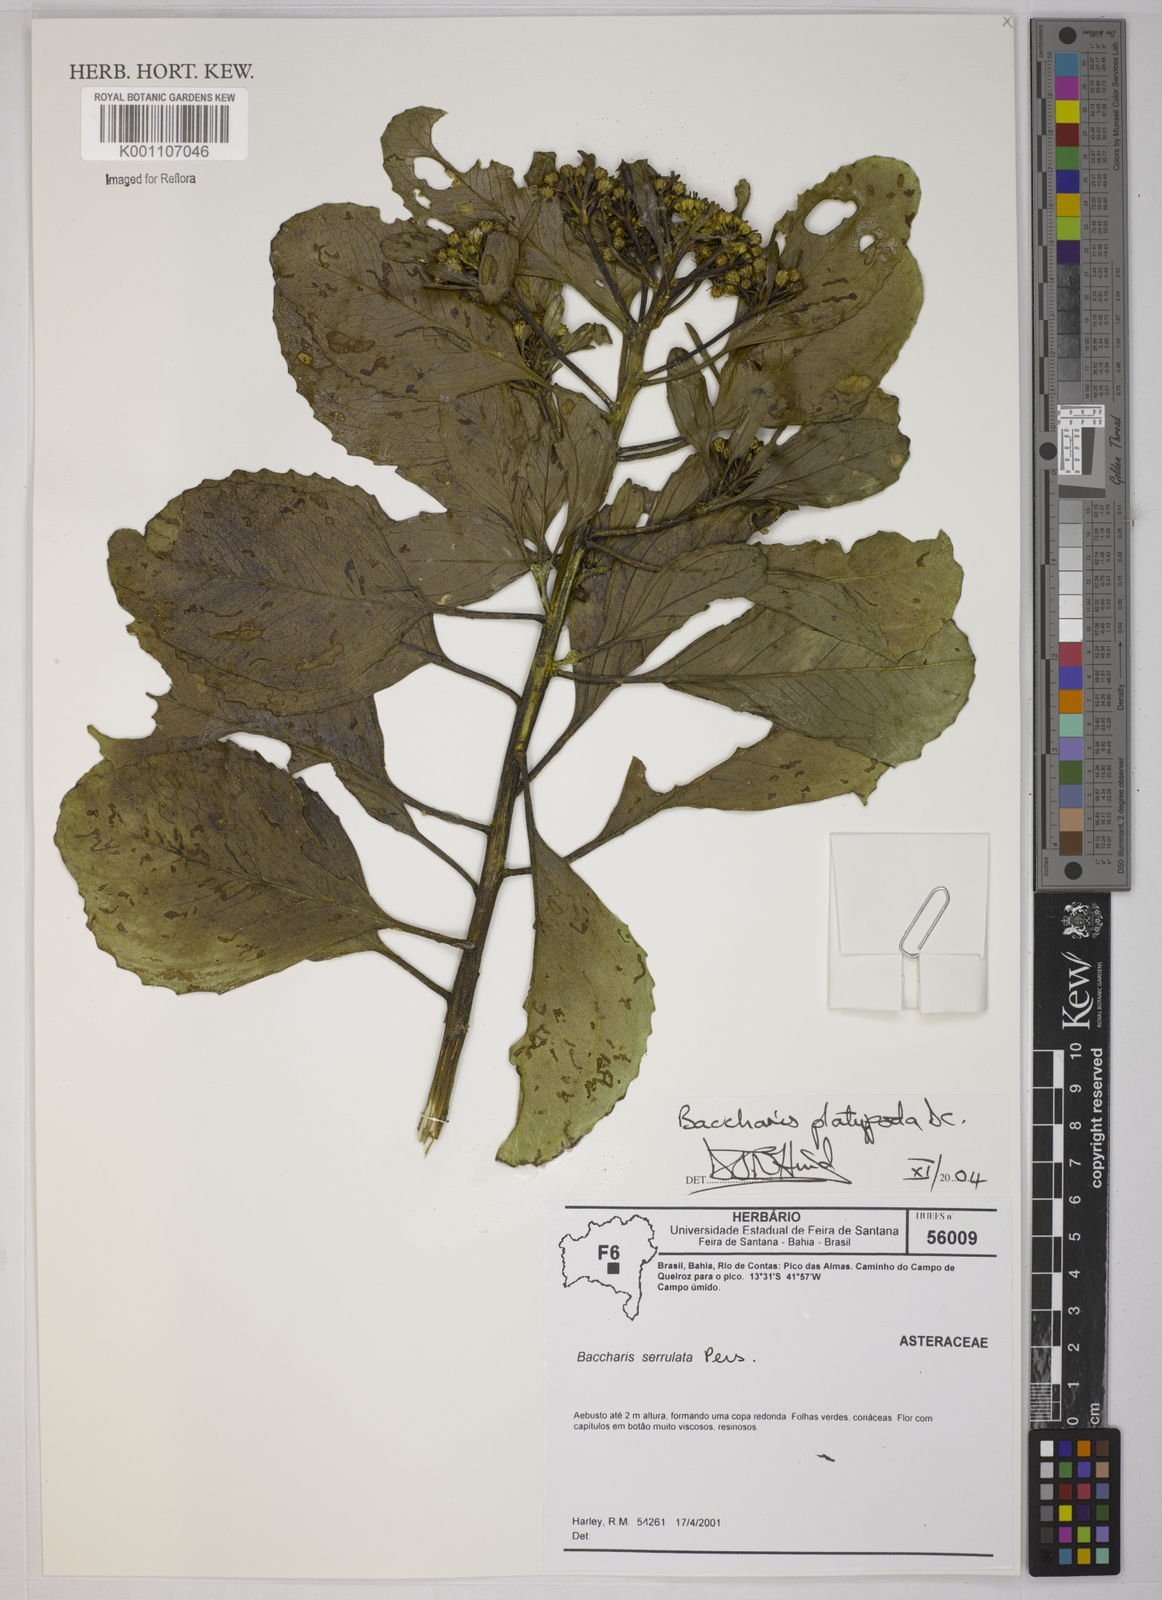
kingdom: Plantae
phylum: Tracheophyta
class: Magnoliopsida
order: Asterales
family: Asteraceae
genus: Baccharis
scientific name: Baccharis platypoda
